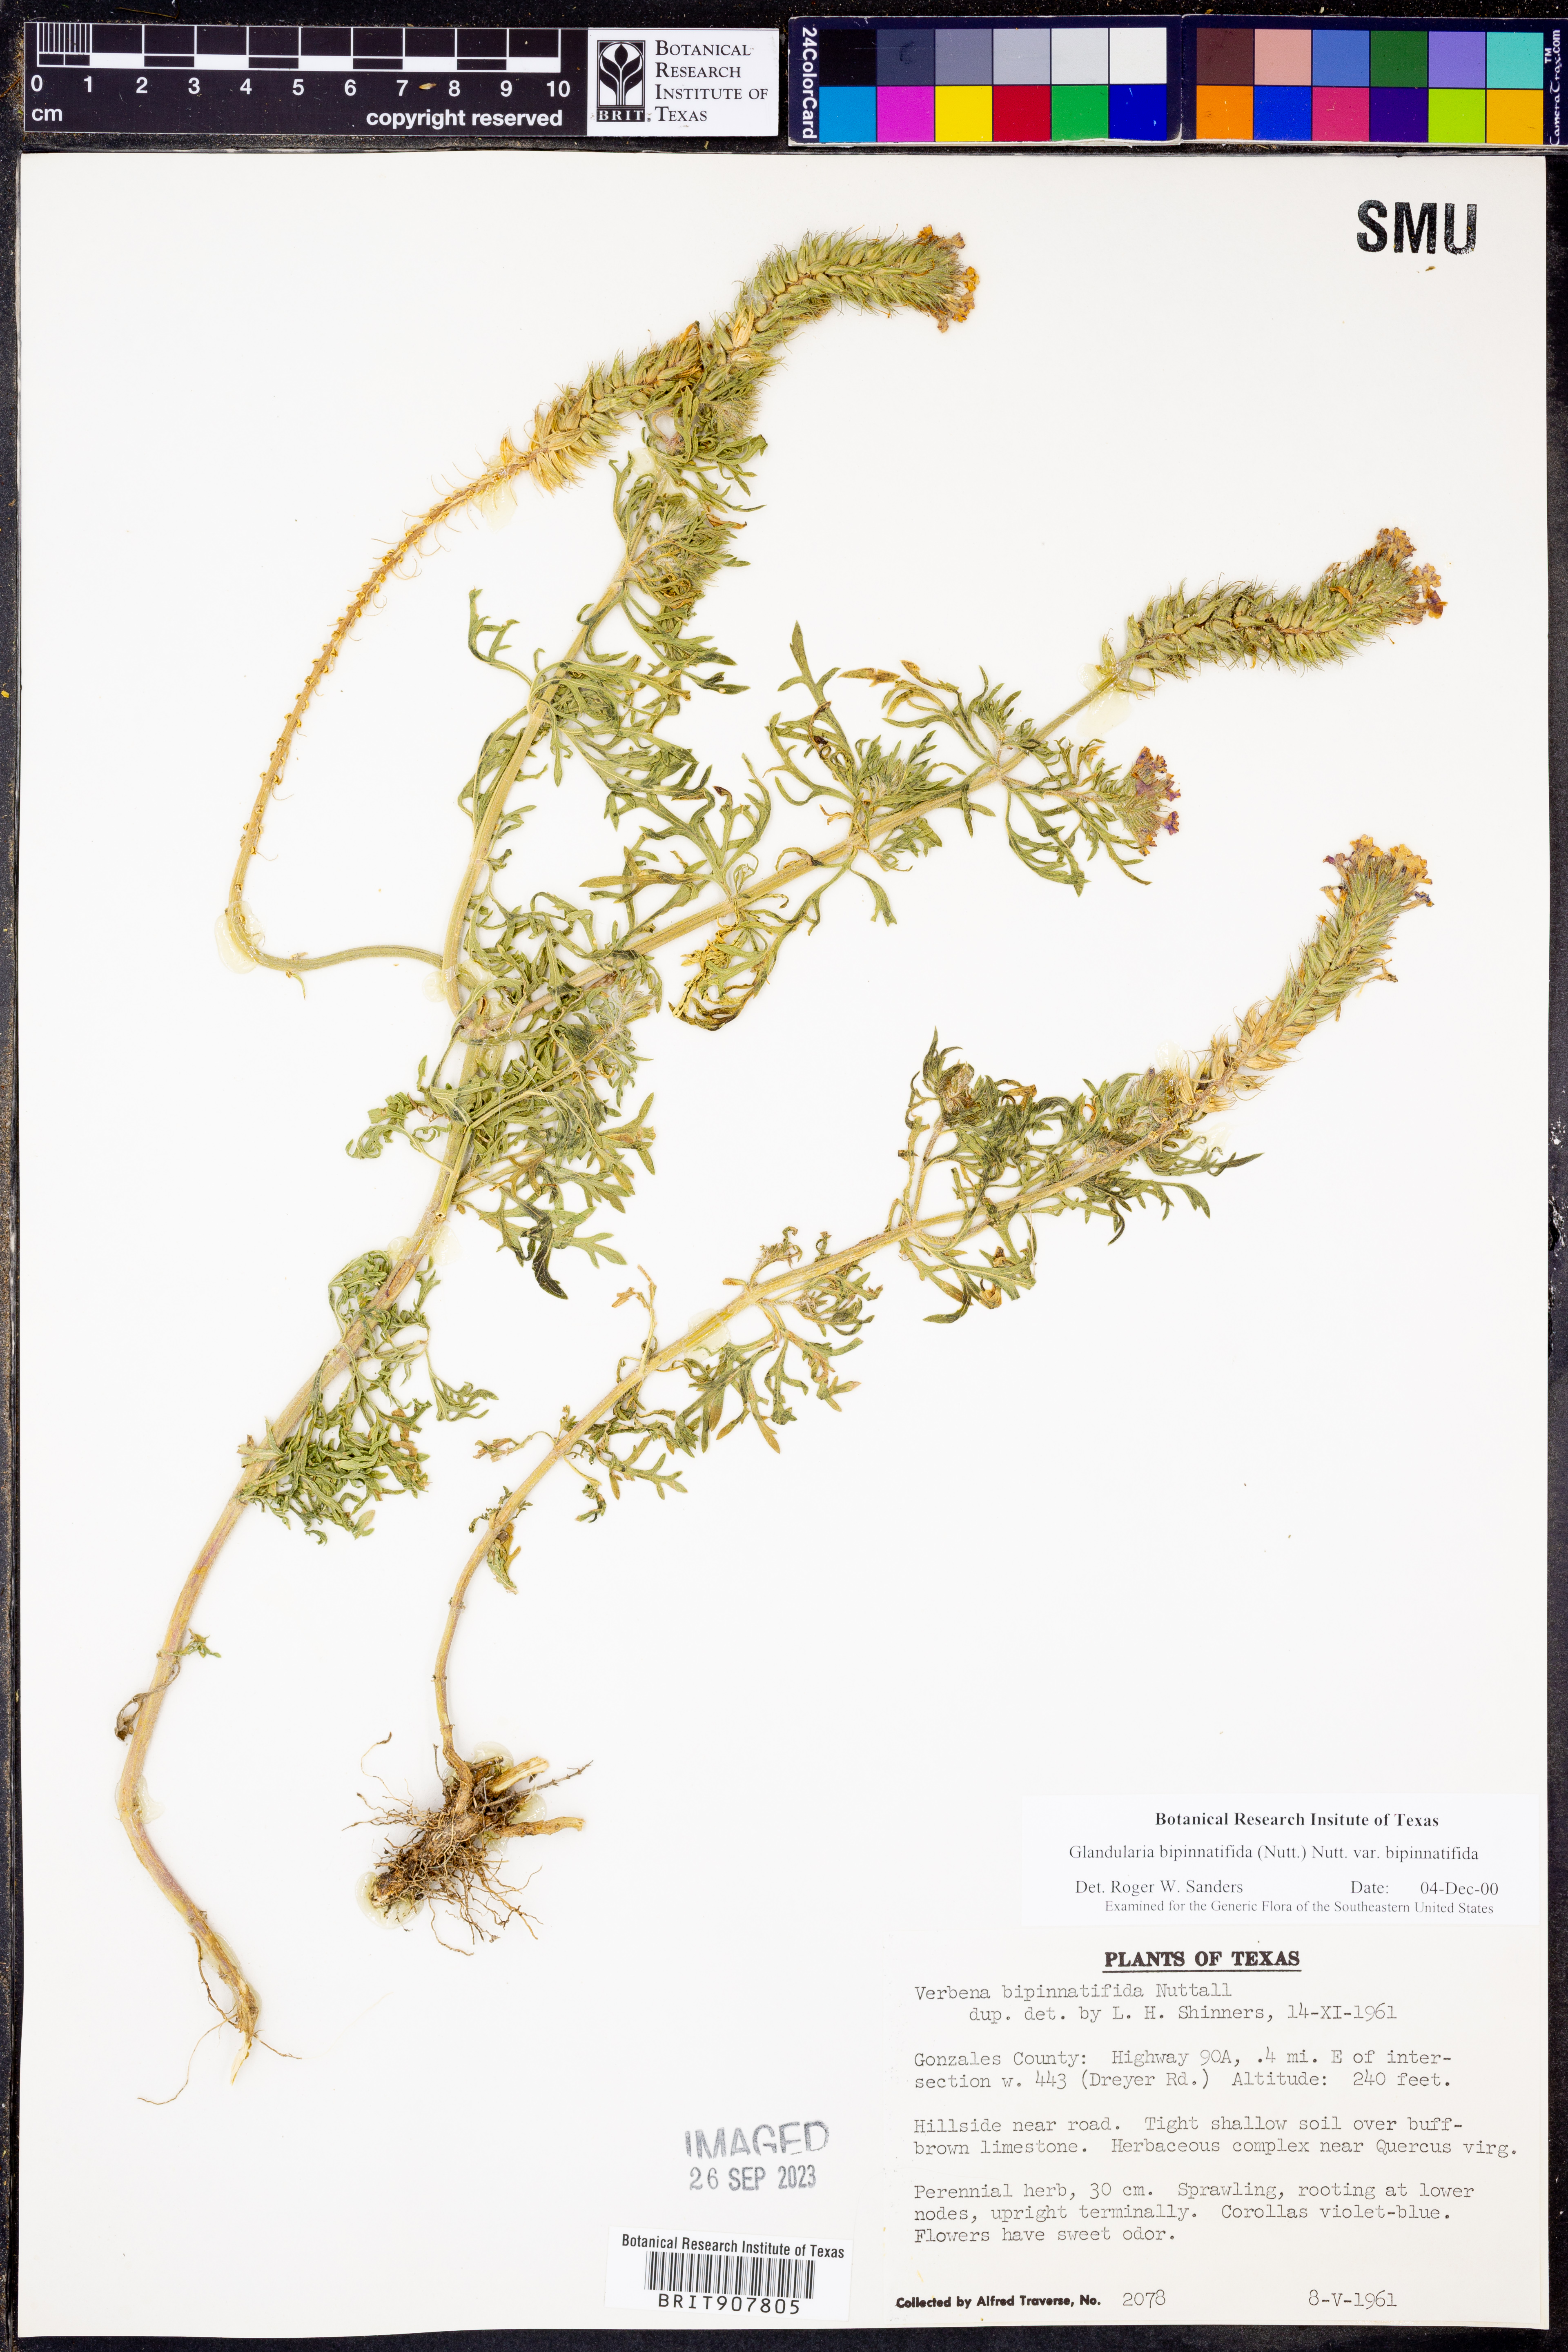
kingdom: Plantae
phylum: Tracheophyta
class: Magnoliopsida
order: Lamiales
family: Verbenaceae
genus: Verbena
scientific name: Verbena bipinnatifida
